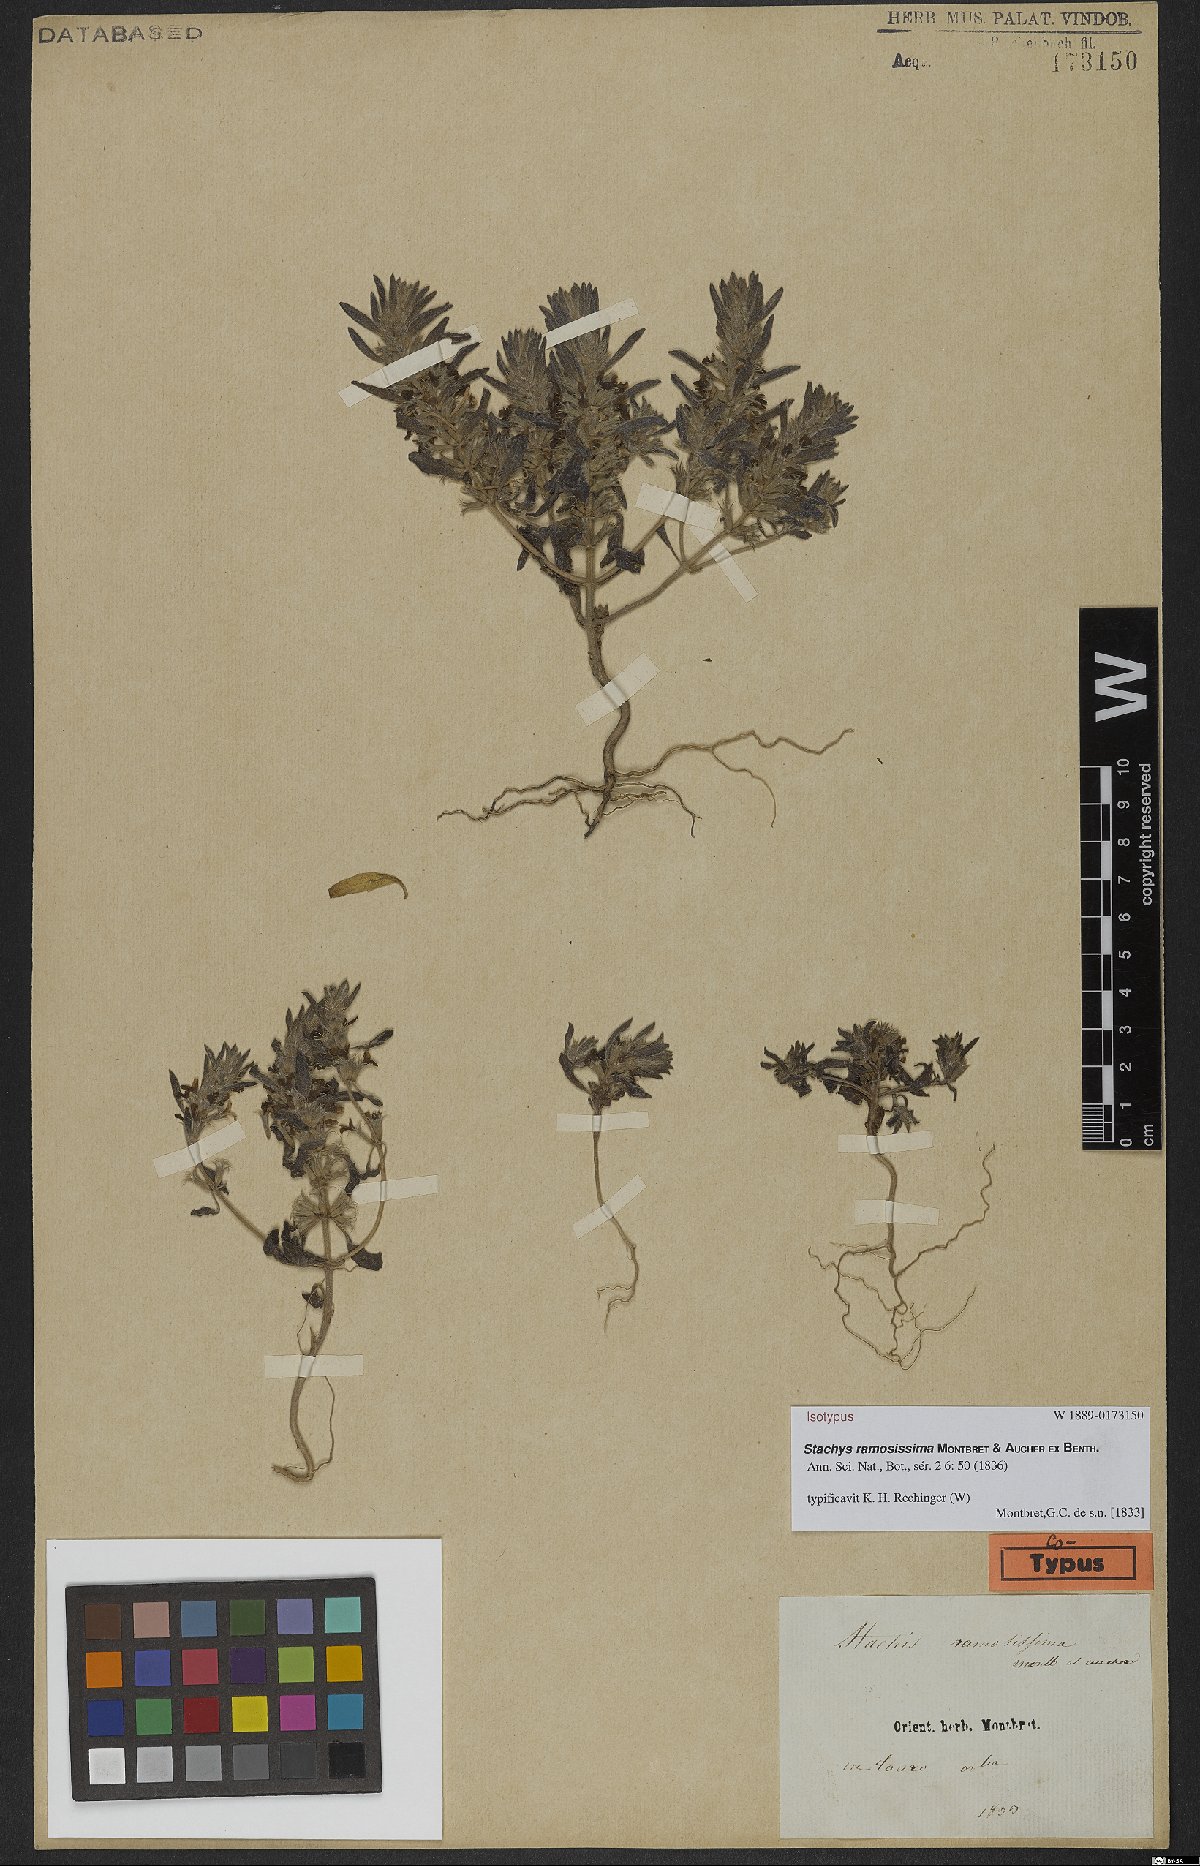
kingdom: Plantae
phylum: Tracheophyta
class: Magnoliopsida
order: Lamiales
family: Lamiaceae
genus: Stachys
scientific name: Stachys ramosissima
